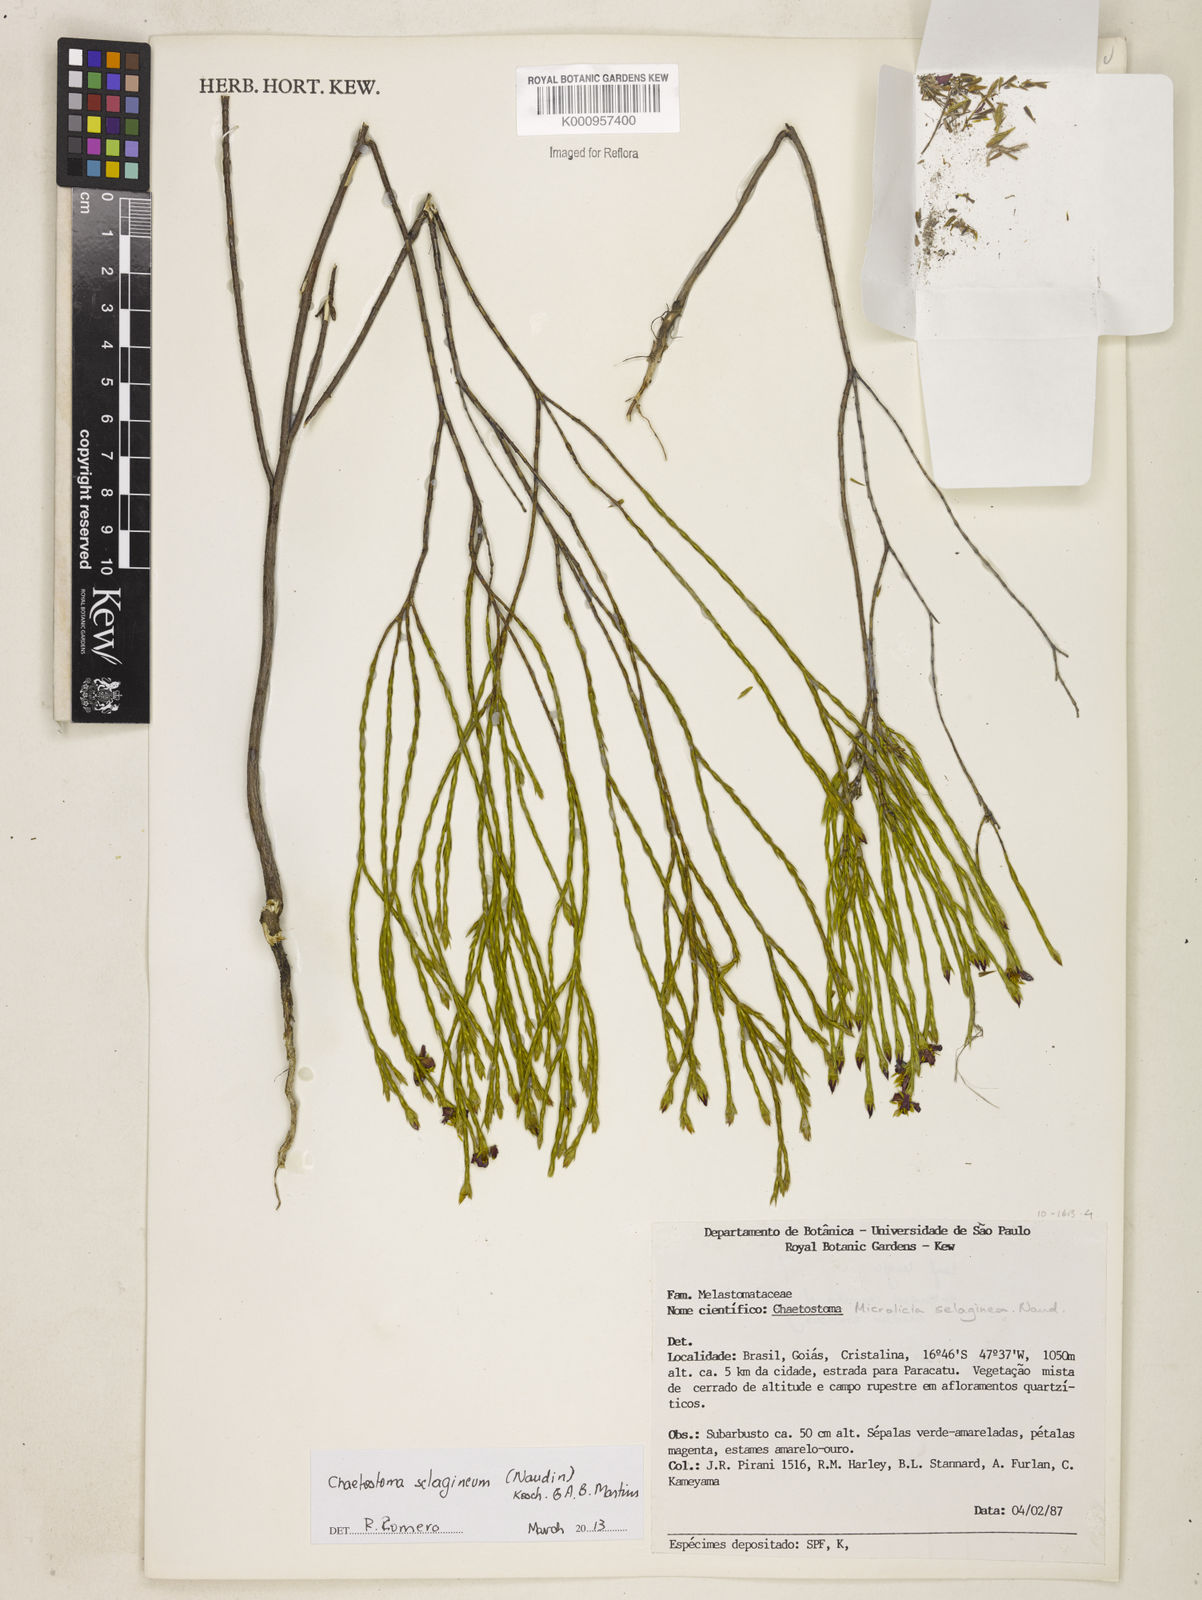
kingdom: Plantae
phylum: Tracheophyta
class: Magnoliopsida
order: Myrtales
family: Melastomataceae
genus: Microlicia
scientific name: Microlicia
